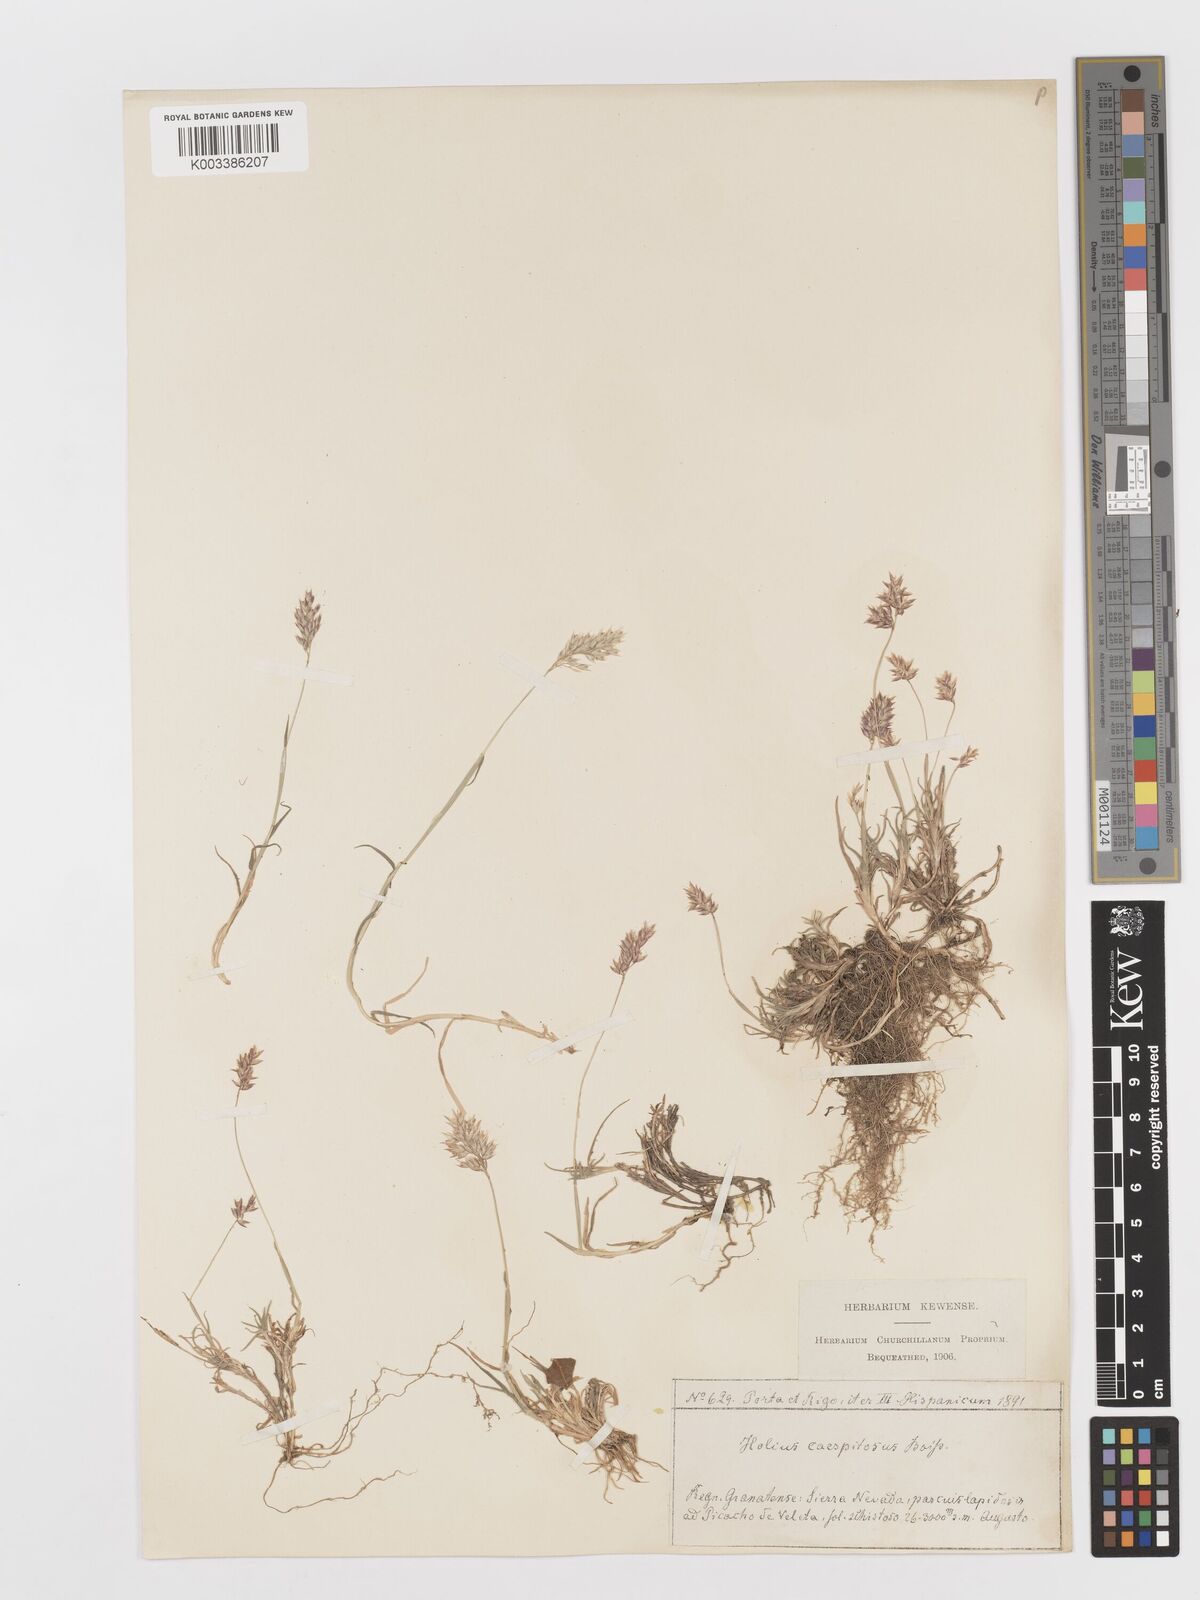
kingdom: Plantae
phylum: Tracheophyta
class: Liliopsida
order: Poales
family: Poaceae
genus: Holcus
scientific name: Holcus caespitosus
